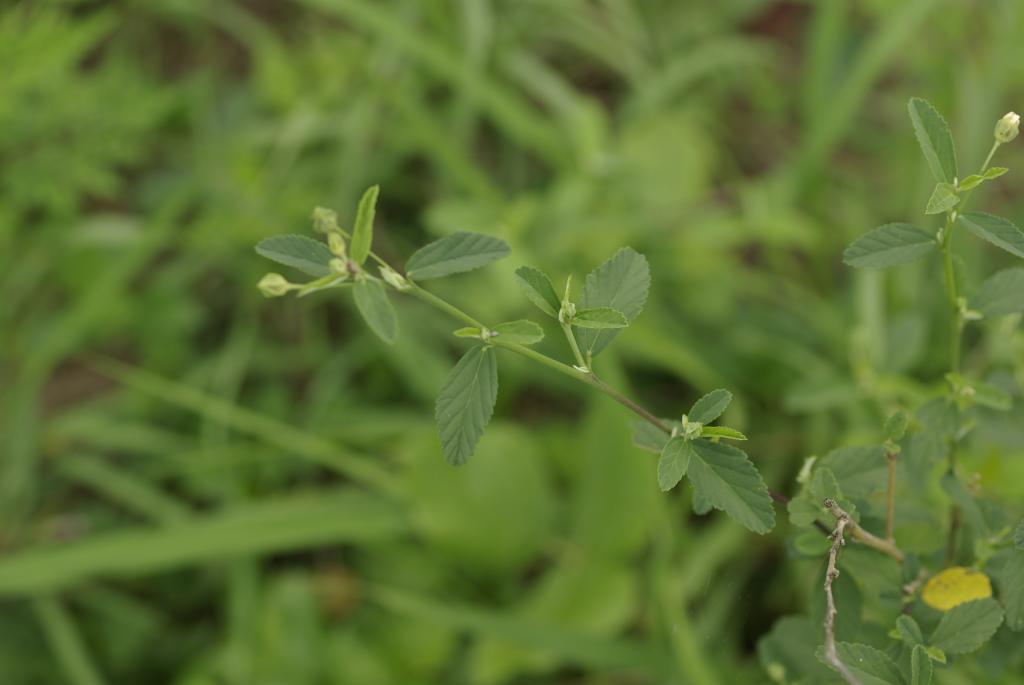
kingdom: Plantae
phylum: Tracheophyta
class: Magnoliopsida
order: Malvales
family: Malvaceae
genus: Sida
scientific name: Sida rhombifolia
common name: Queensland-hemp
